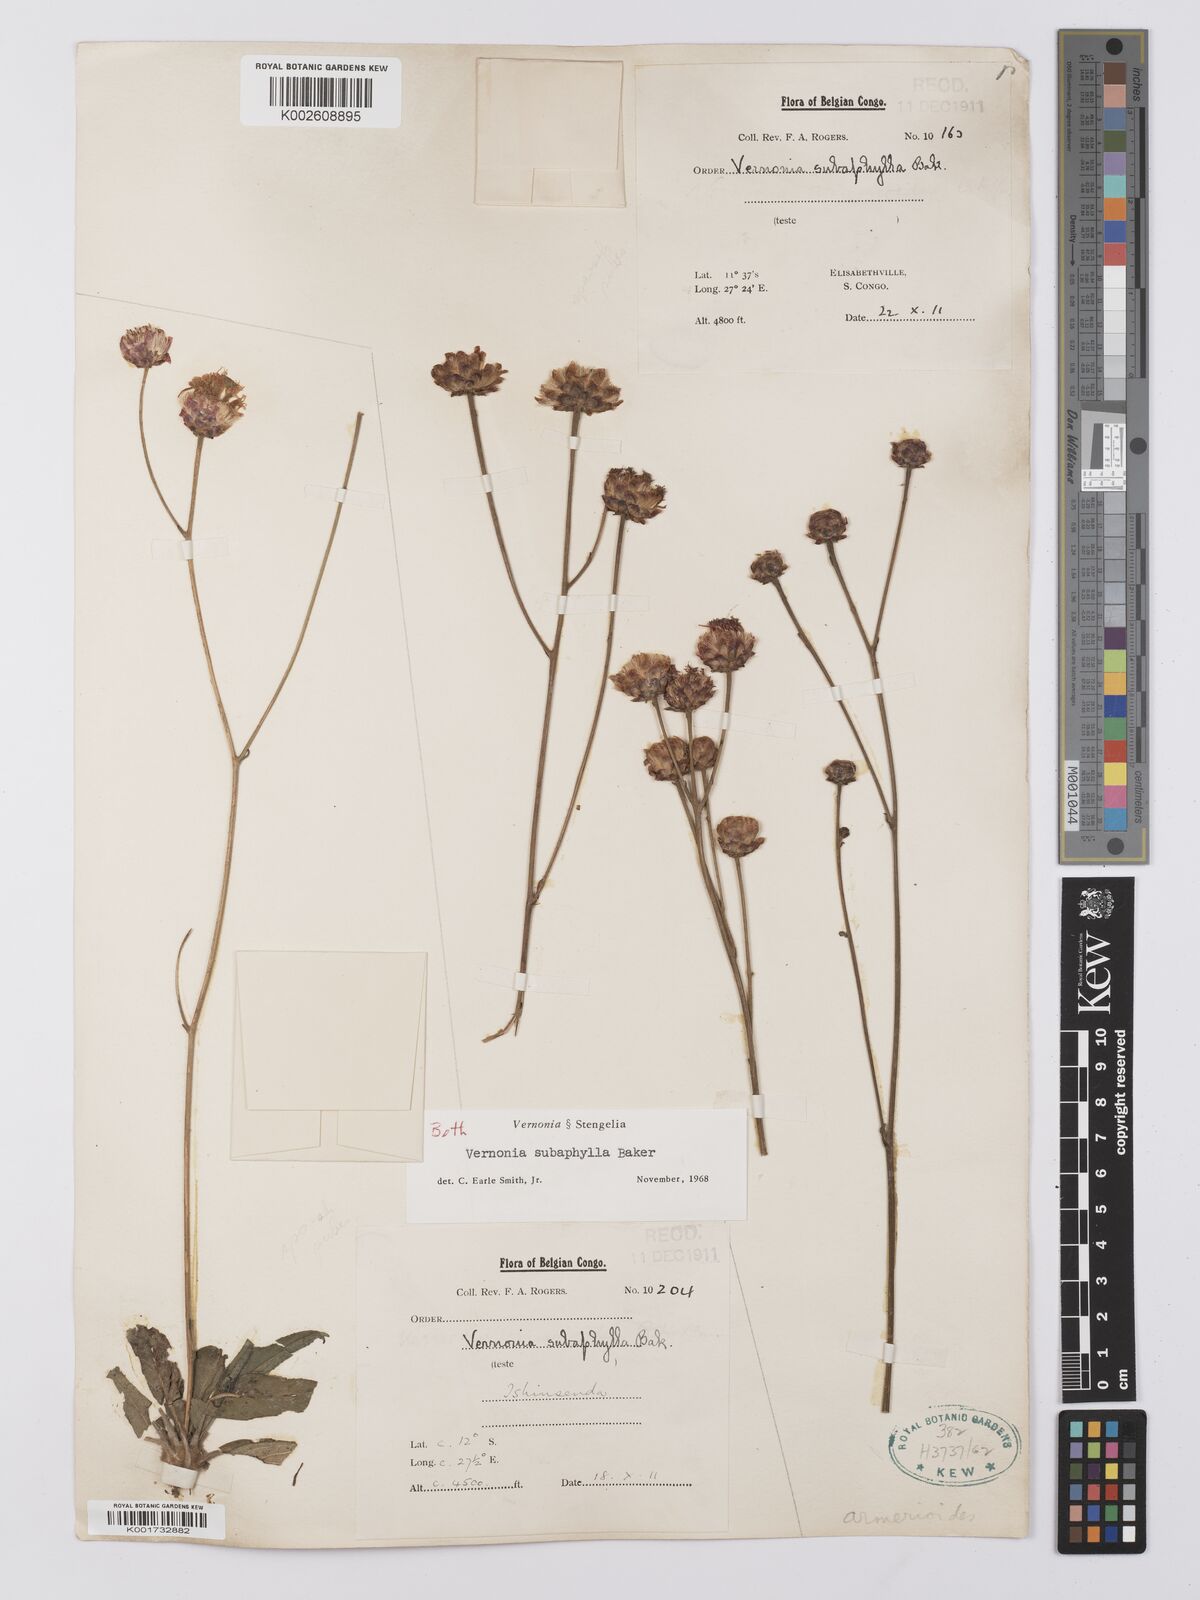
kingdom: Plantae
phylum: Tracheophyta
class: Magnoliopsida
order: Asterales
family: Asteraceae
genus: Vernonella
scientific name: Vernonella subaphylla
